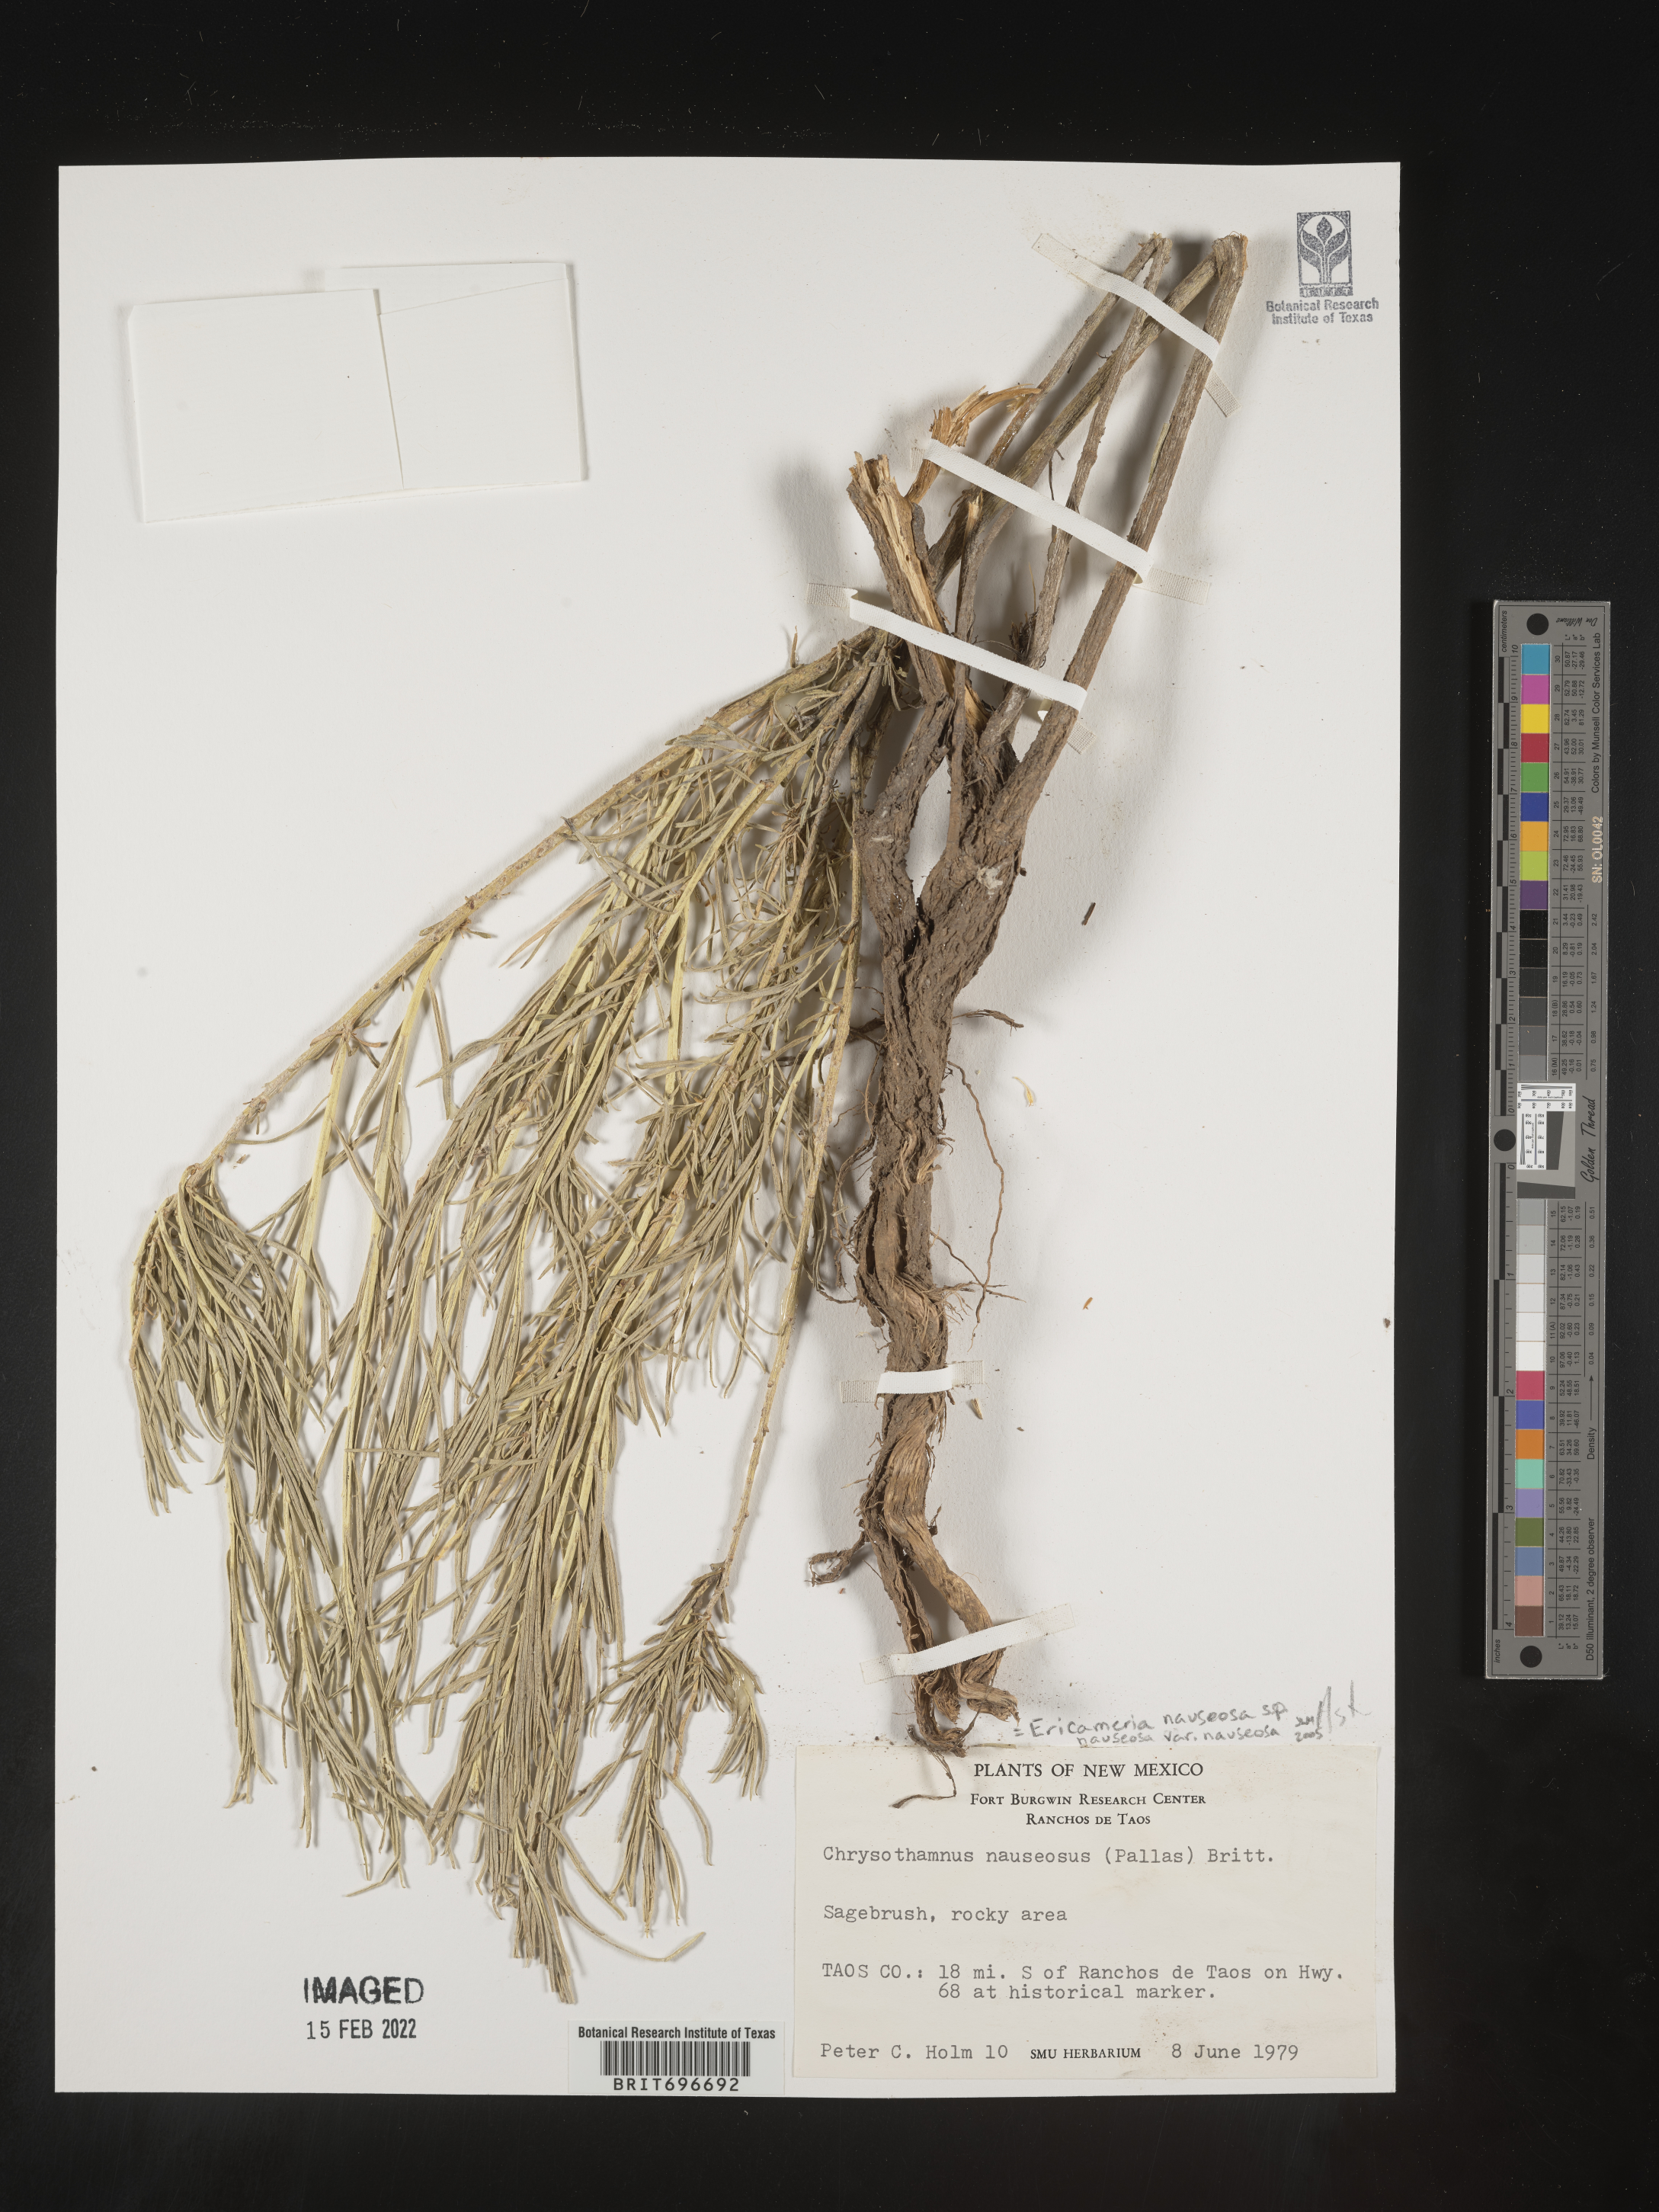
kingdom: Plantae
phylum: Tracheophyta
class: Magnoliopsida
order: Asterales
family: Asteraceae
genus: Ericameria
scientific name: Ericameria nauseosa
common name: Rubber rabbitbrush
